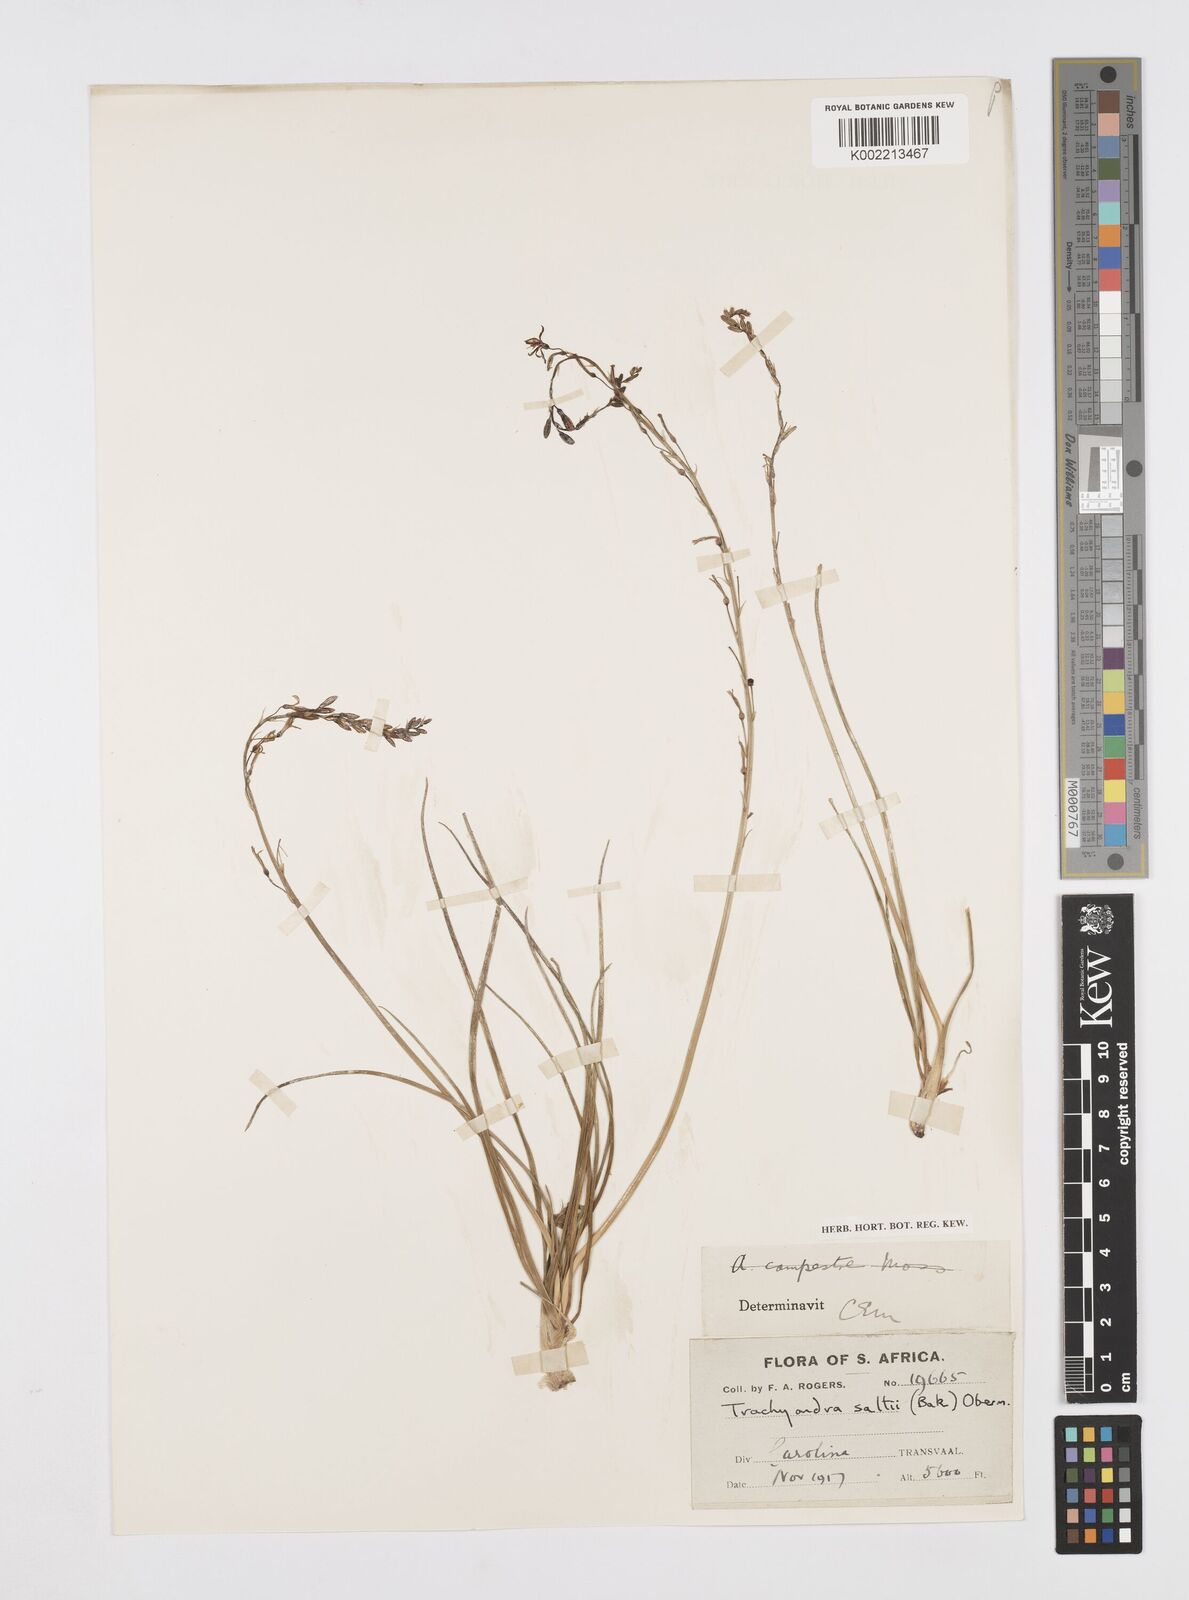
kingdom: Plantae
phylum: Tracheophyta
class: Liliopsida
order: Asparagales
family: Asphodelaceae
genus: Trachyandra
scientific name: Trachyandra saltii
